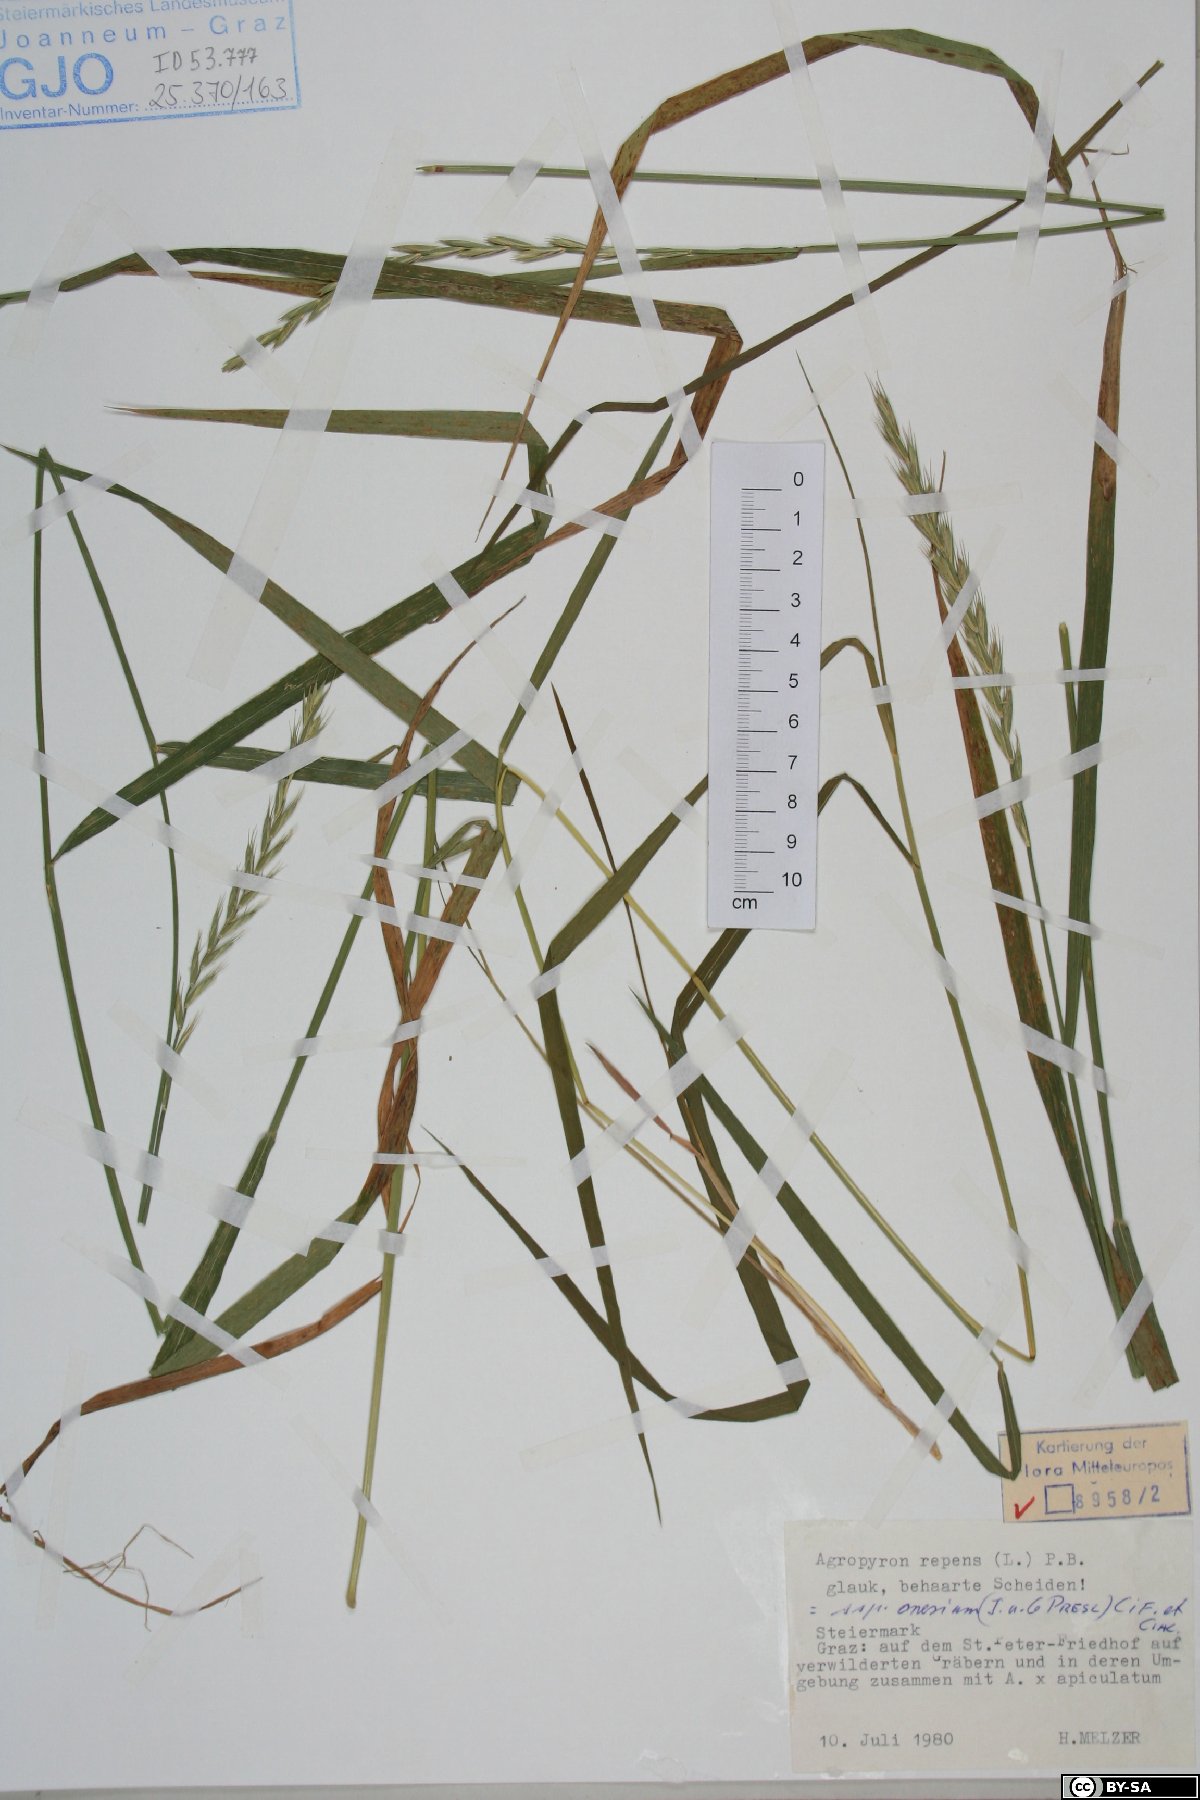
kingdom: Plantae
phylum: Tracheophyta
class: Liliopsida
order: Poales
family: Poaceae
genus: Elymus
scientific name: Elymus repens
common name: Quackgrass
